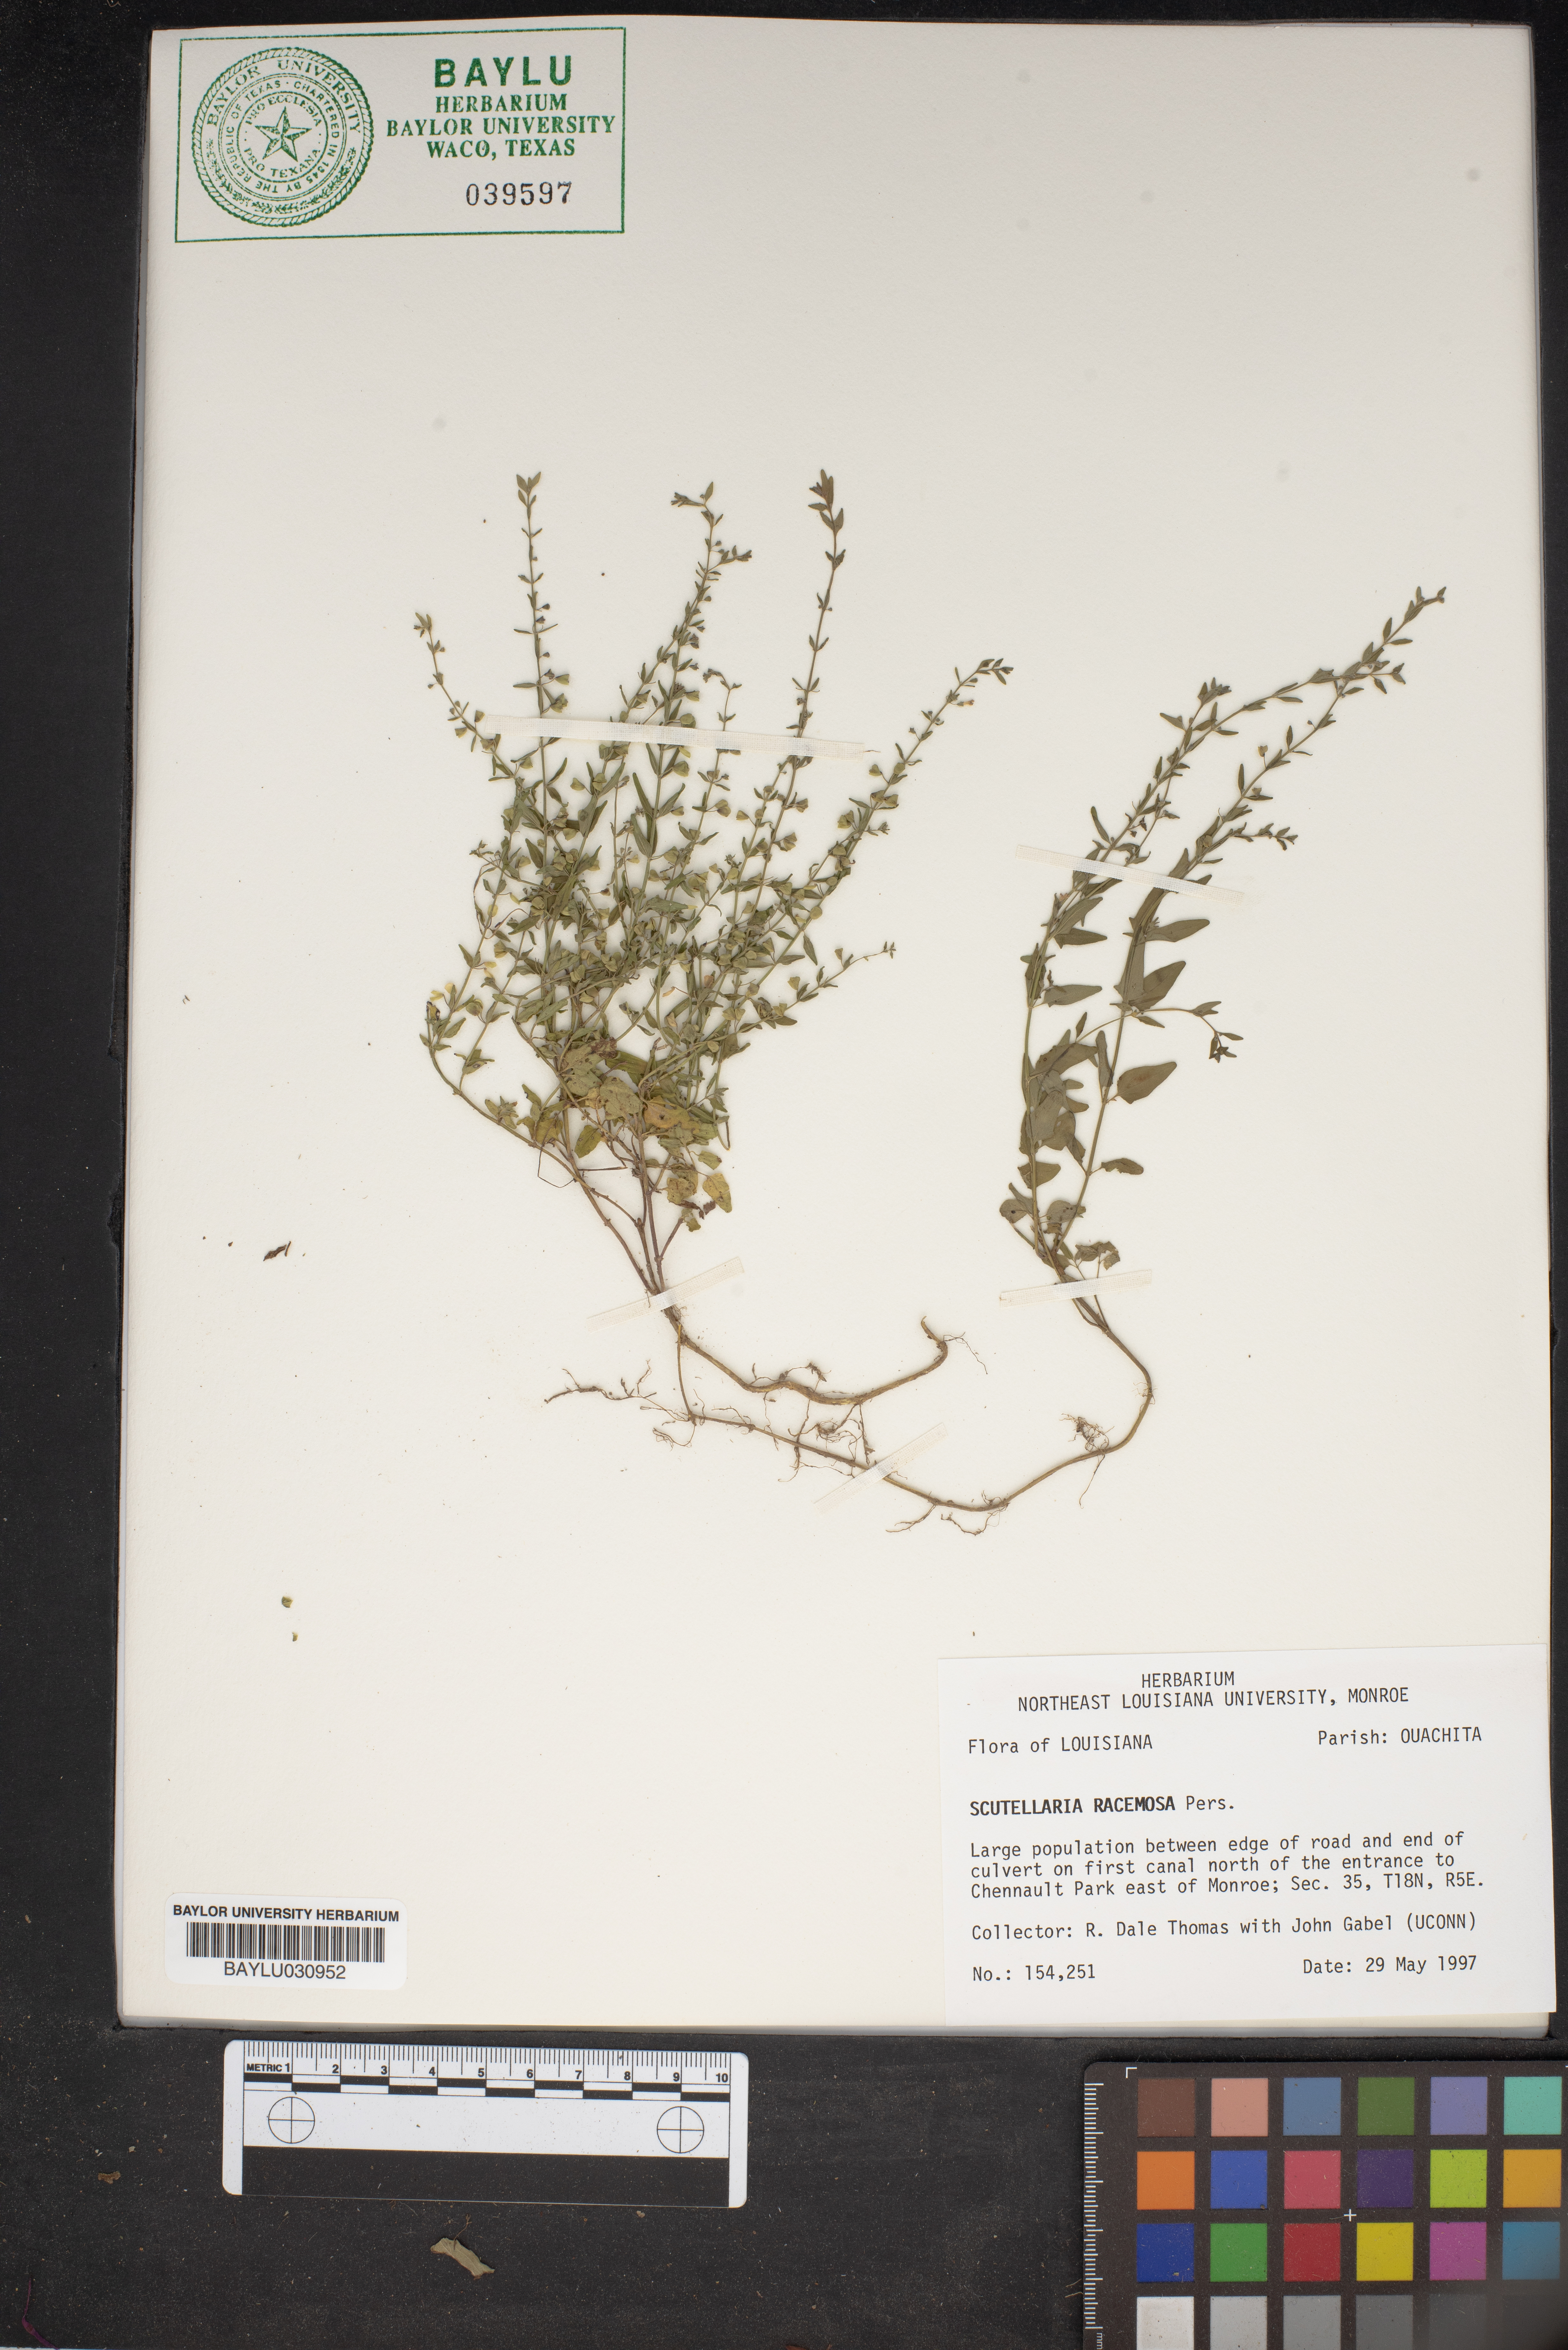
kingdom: Plantae
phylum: Tracheophyta
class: Magnoliopsida
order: Lamiales
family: Lamiaceae
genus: Scutellaria
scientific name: Scutellaria racemosa
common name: South american skullcap
